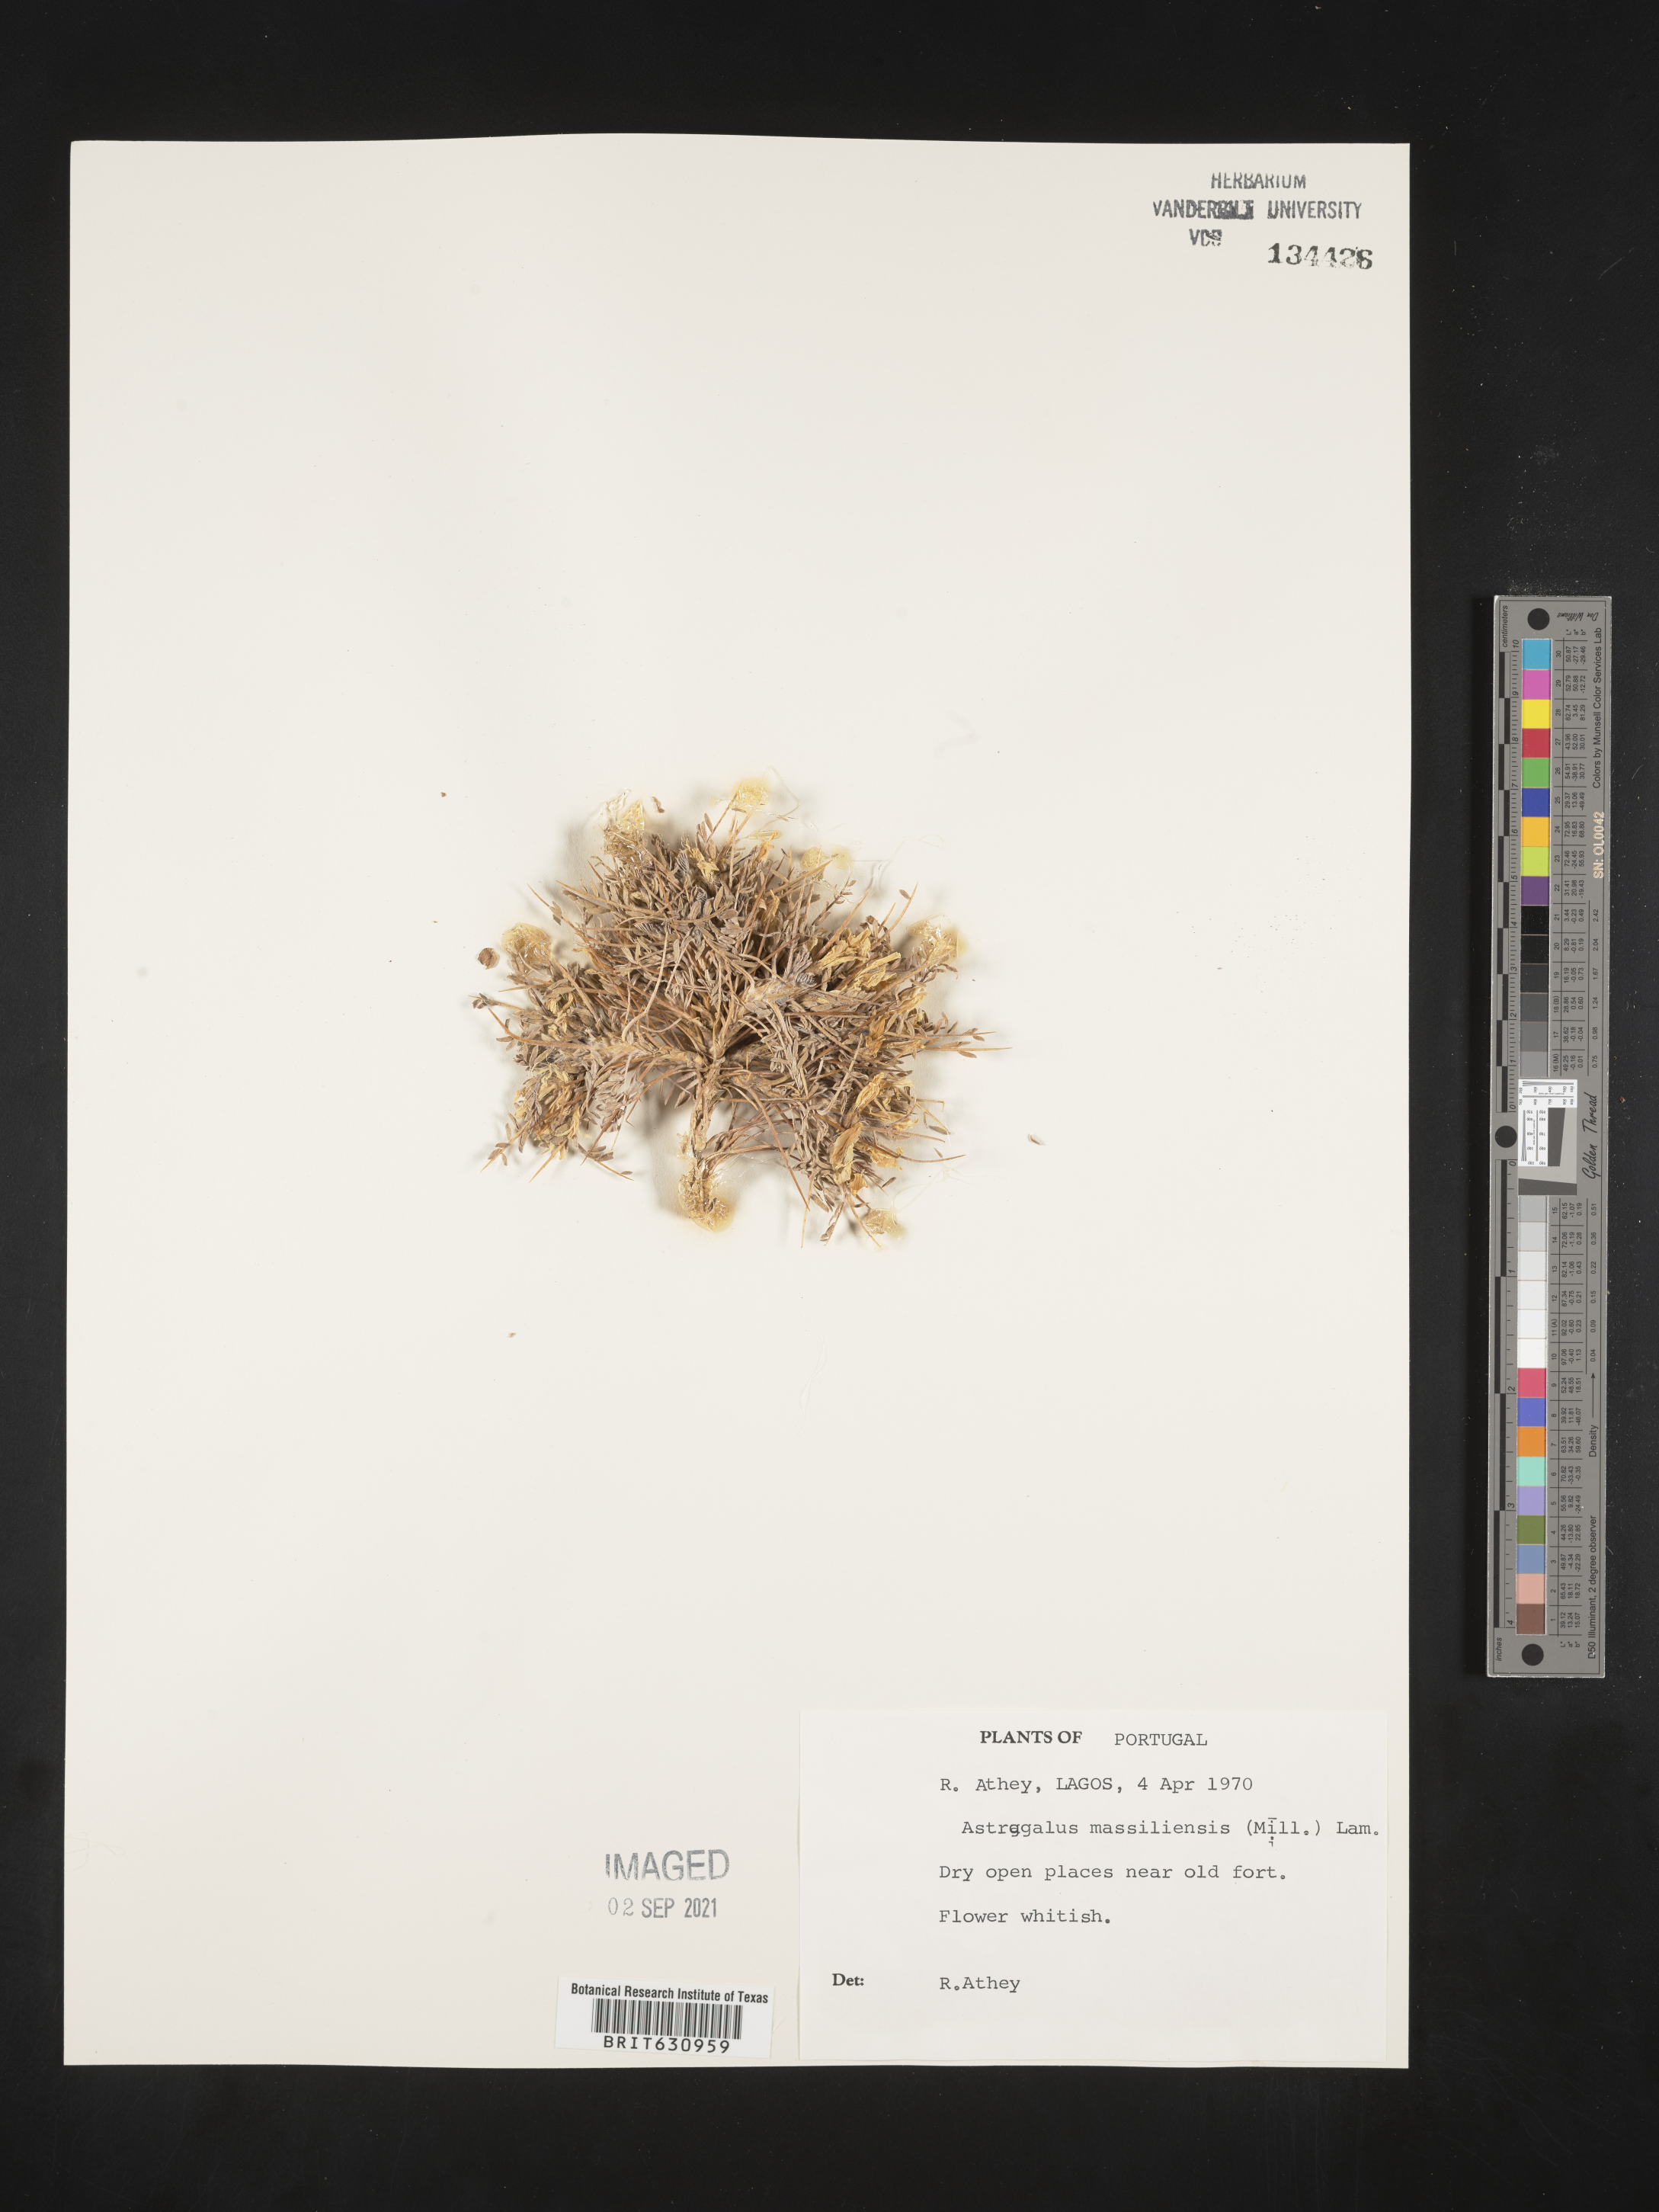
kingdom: Plantae
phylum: Tracheophyta
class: Magnoliopsida
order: Fabales
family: Fabaceae
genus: Astragalus
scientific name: Astragalus
